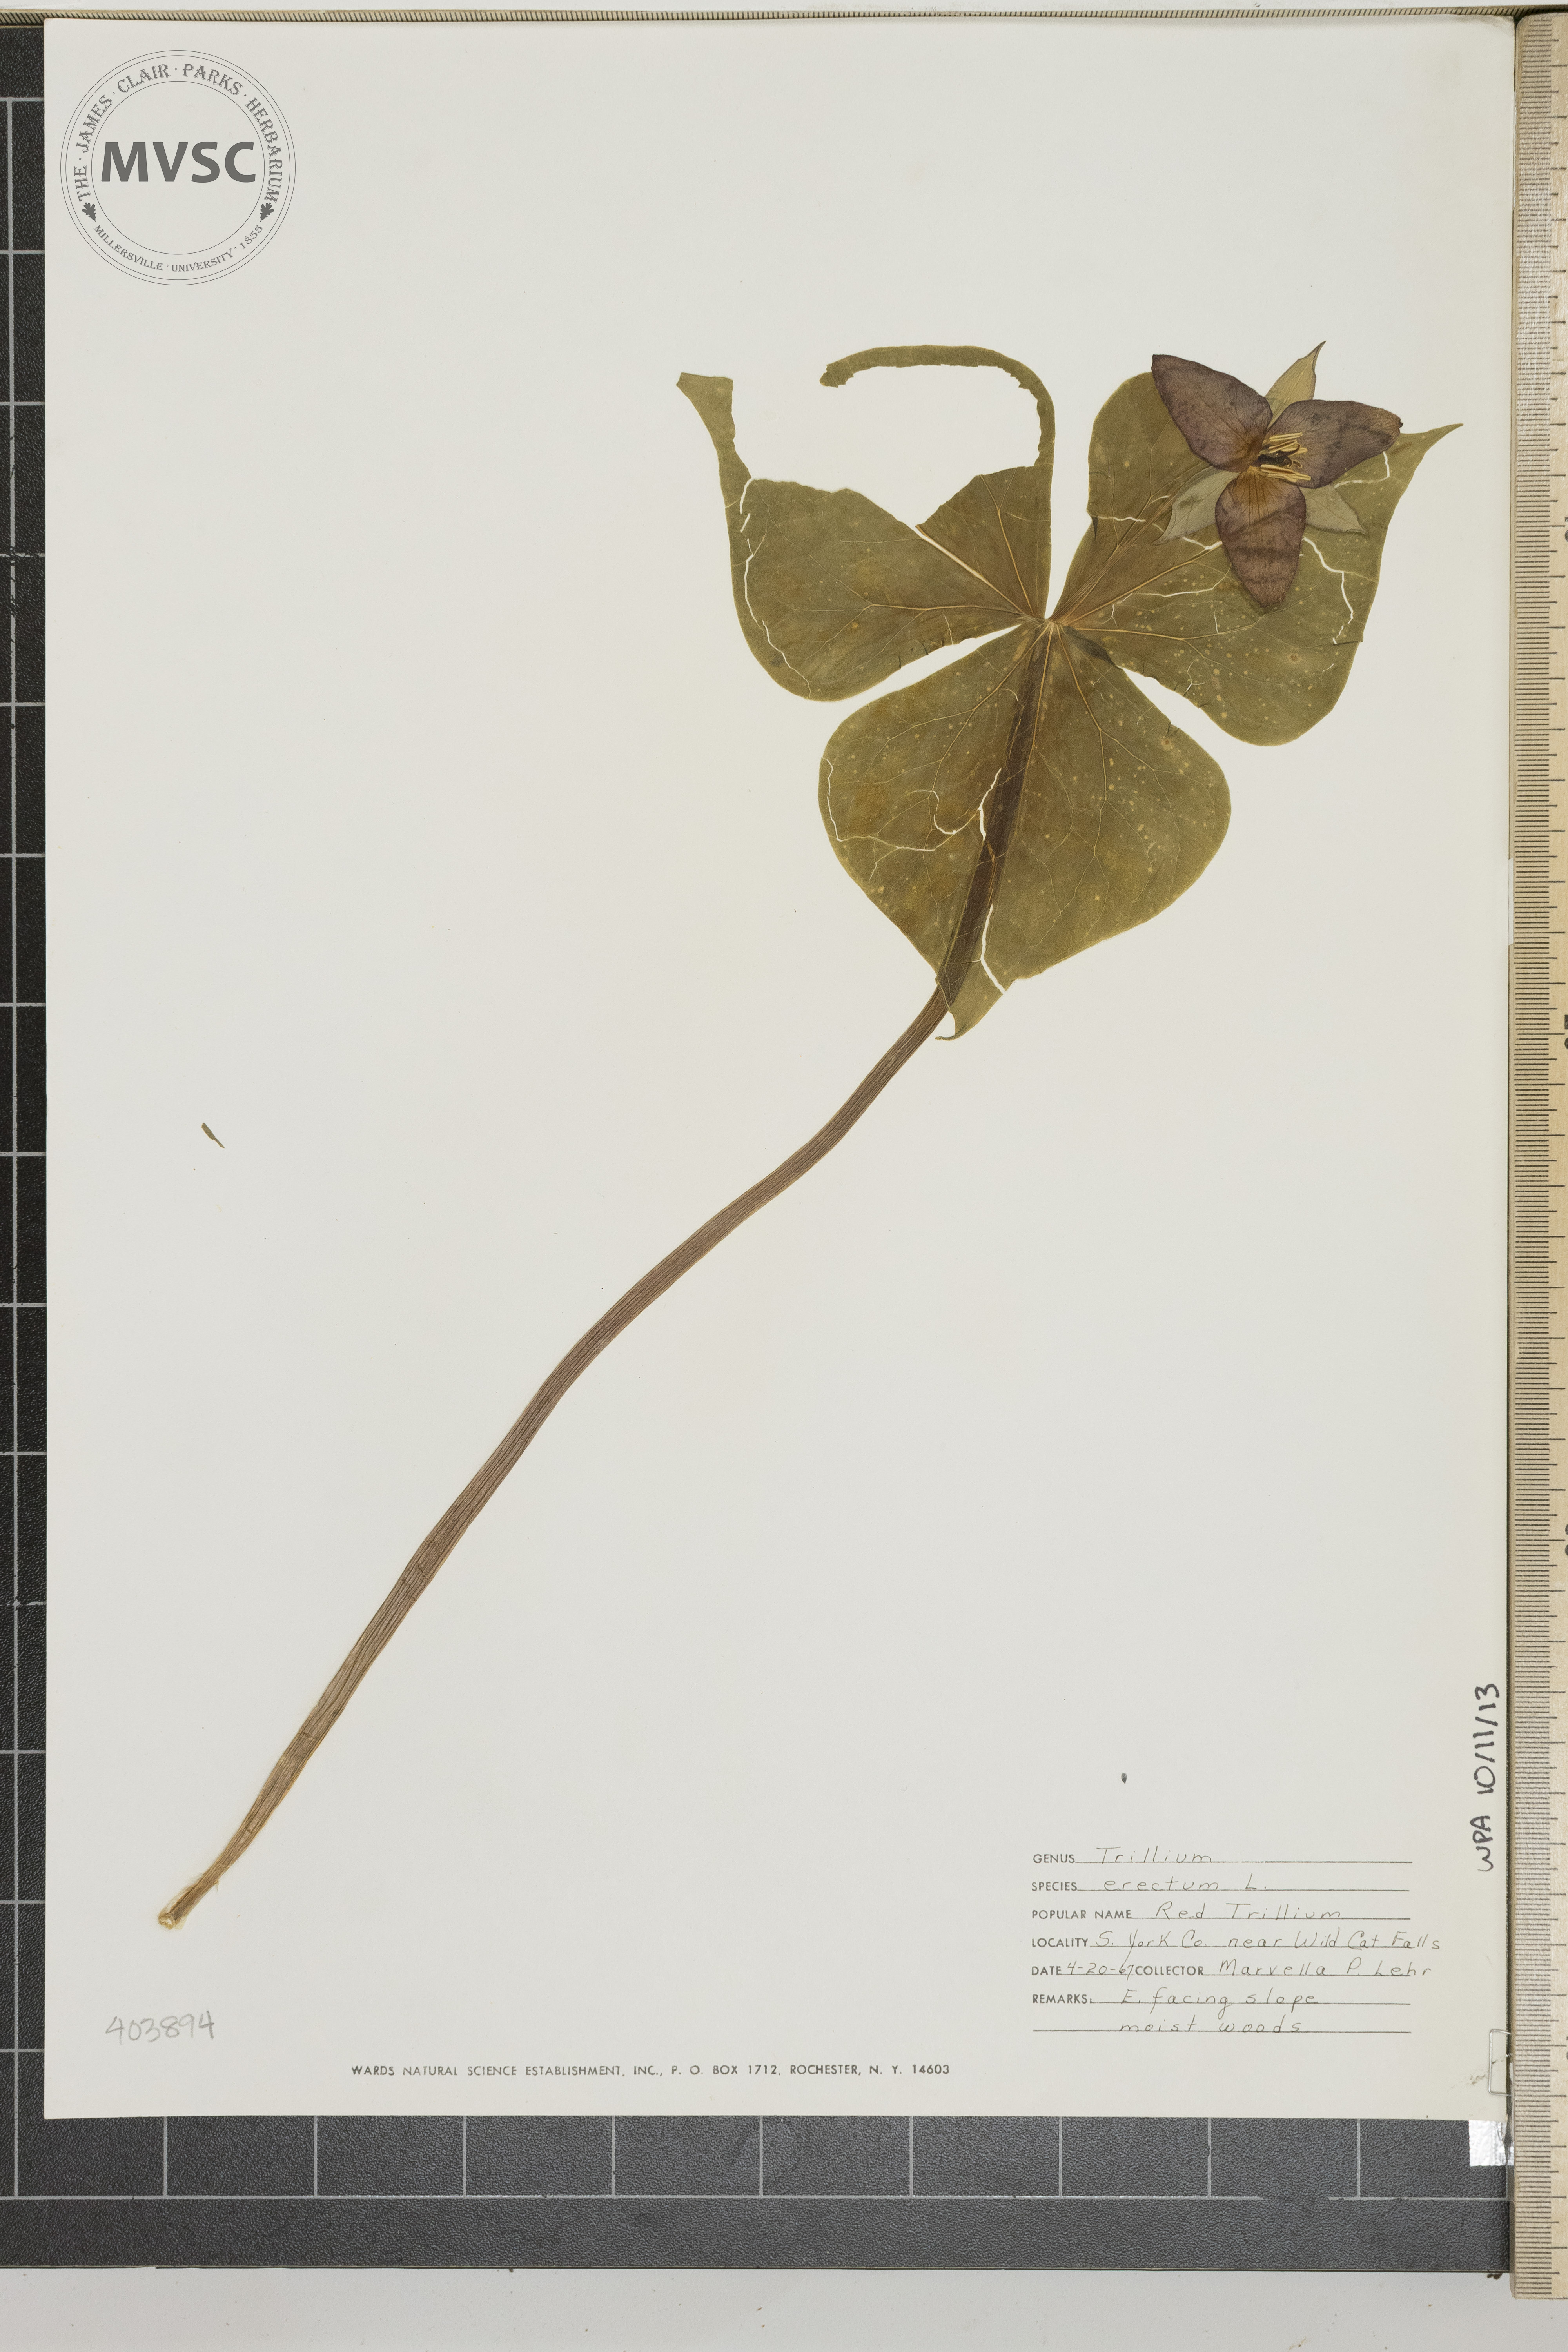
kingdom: Plantae
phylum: Tracheophyta
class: Liliopsida
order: Liliales
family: Melanthiaceae
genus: Trillium
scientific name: Trillium erectum
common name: Red Trillium
